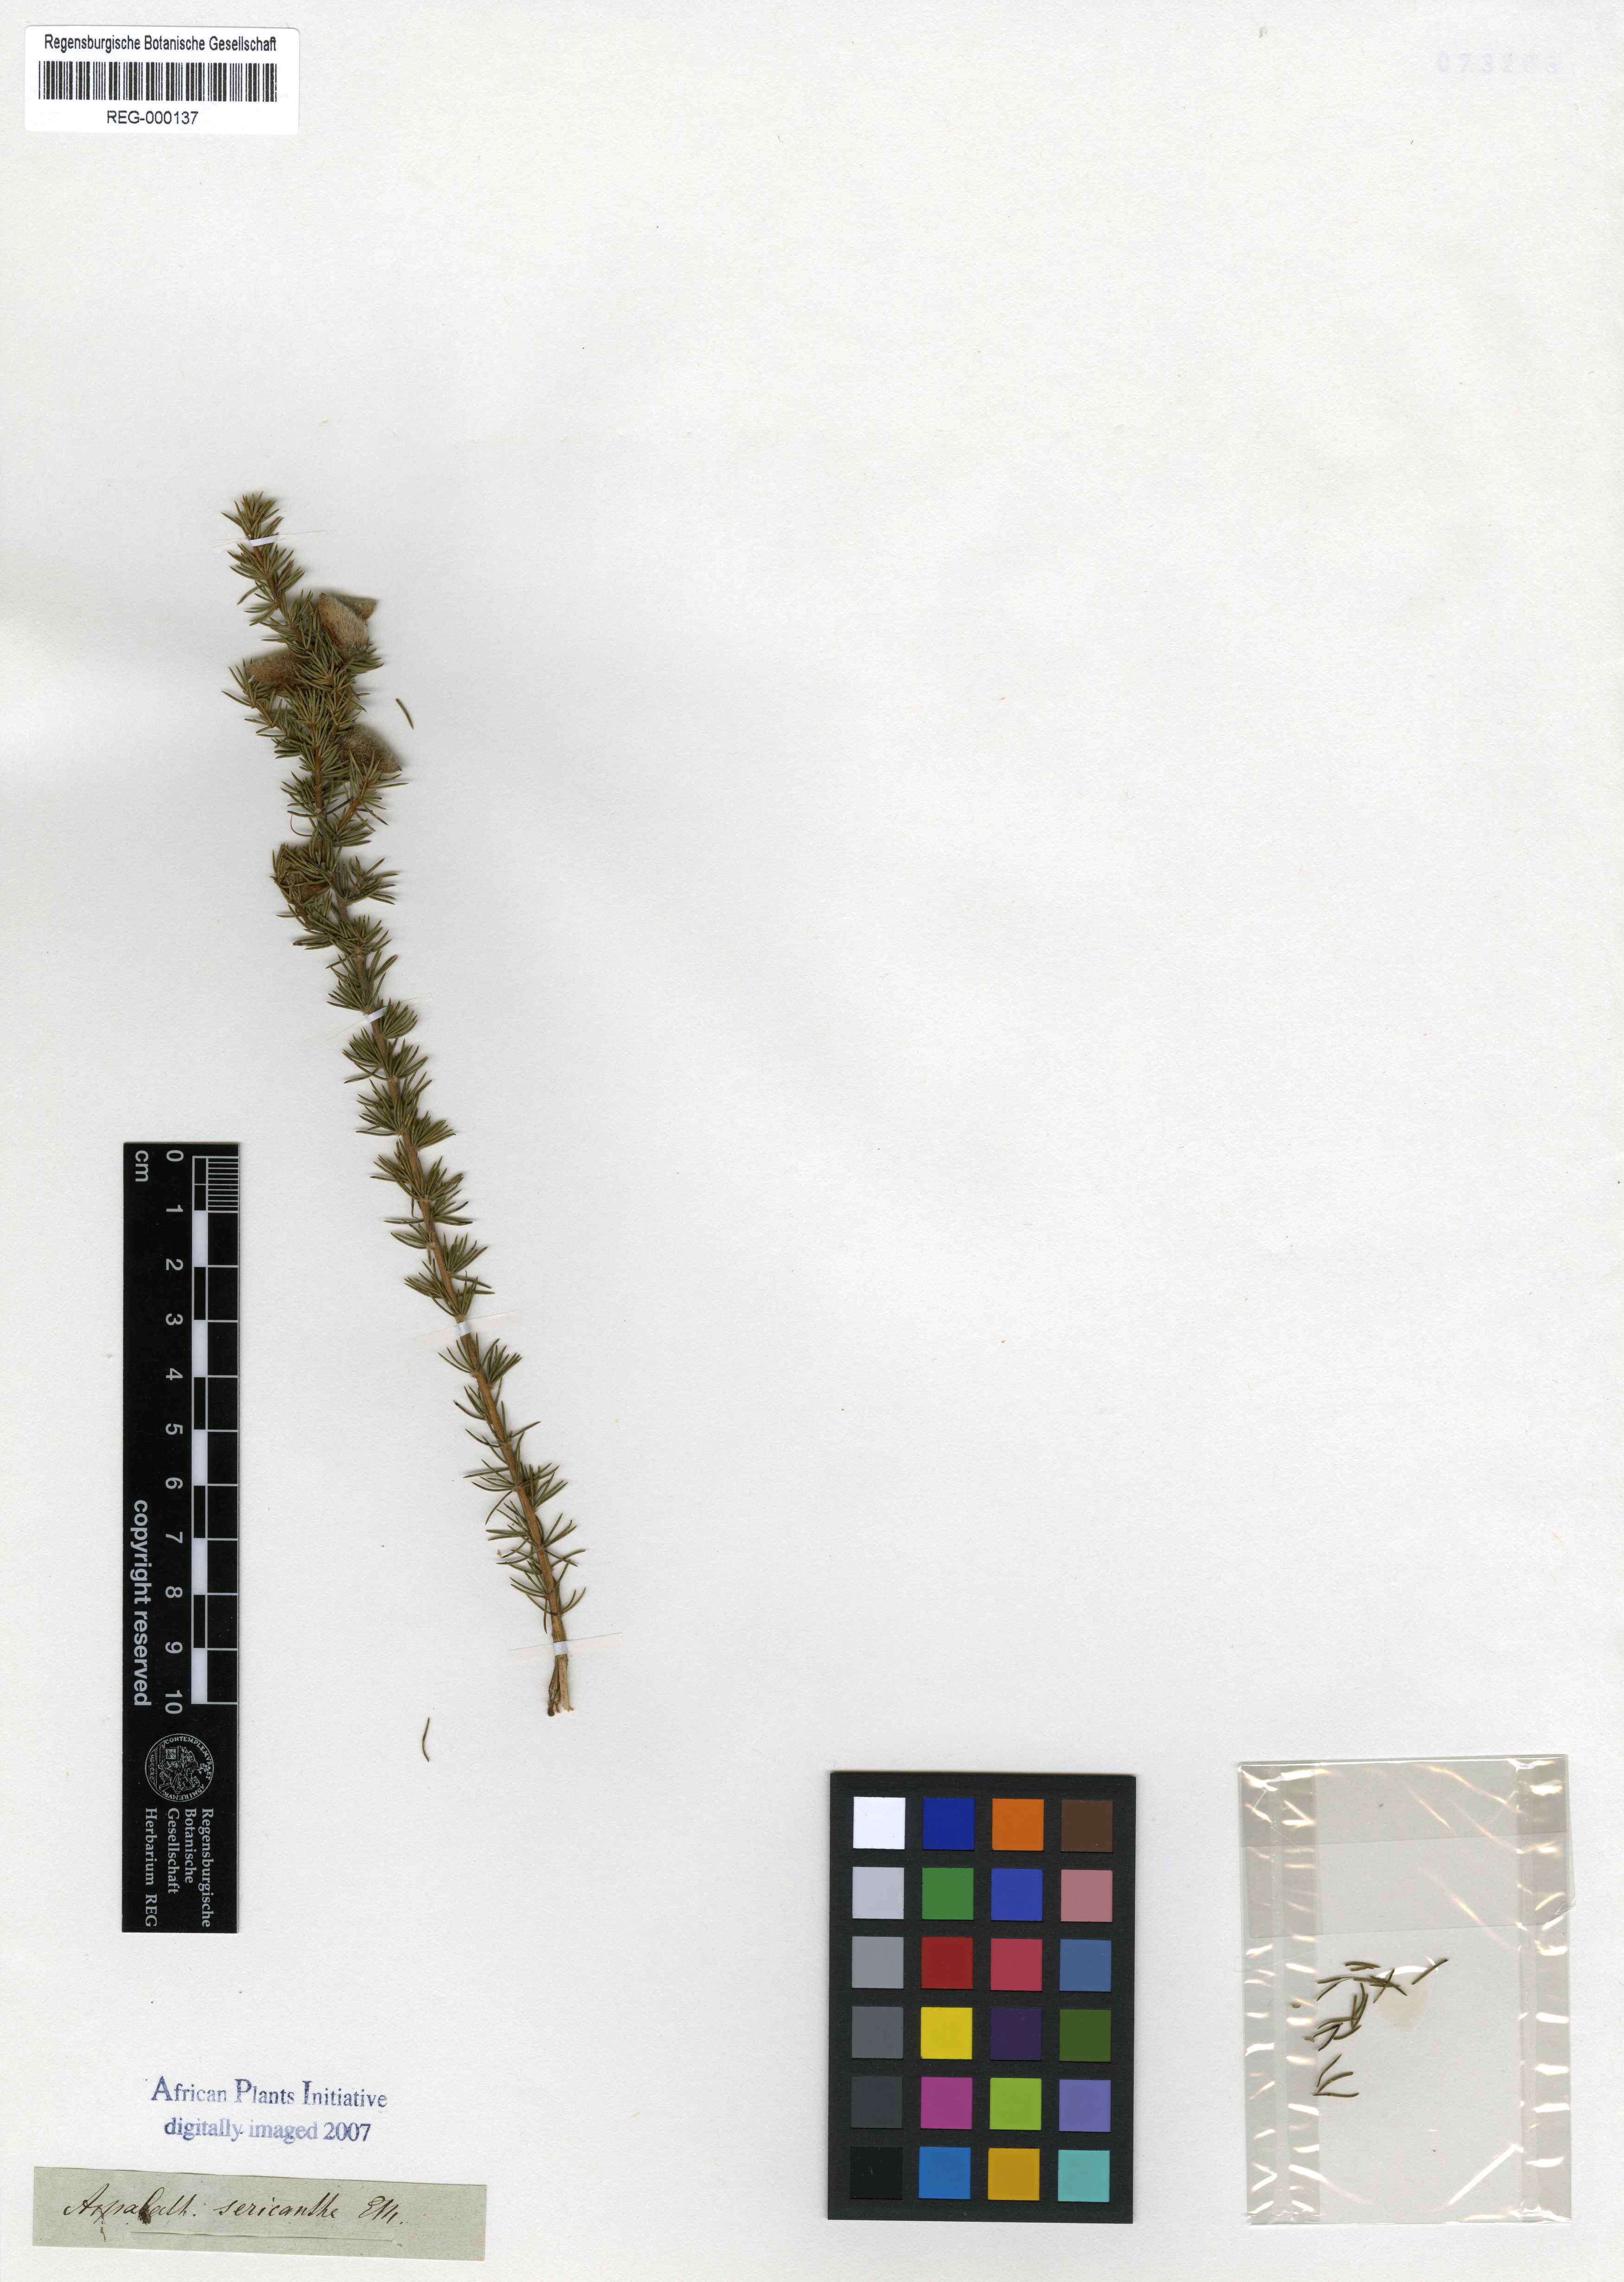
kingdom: Plantae
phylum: Tracheophyta
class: Magnoliopsida
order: Fabales
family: Fabaceae
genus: Aspalathus
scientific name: Aspalathus laricifolia
